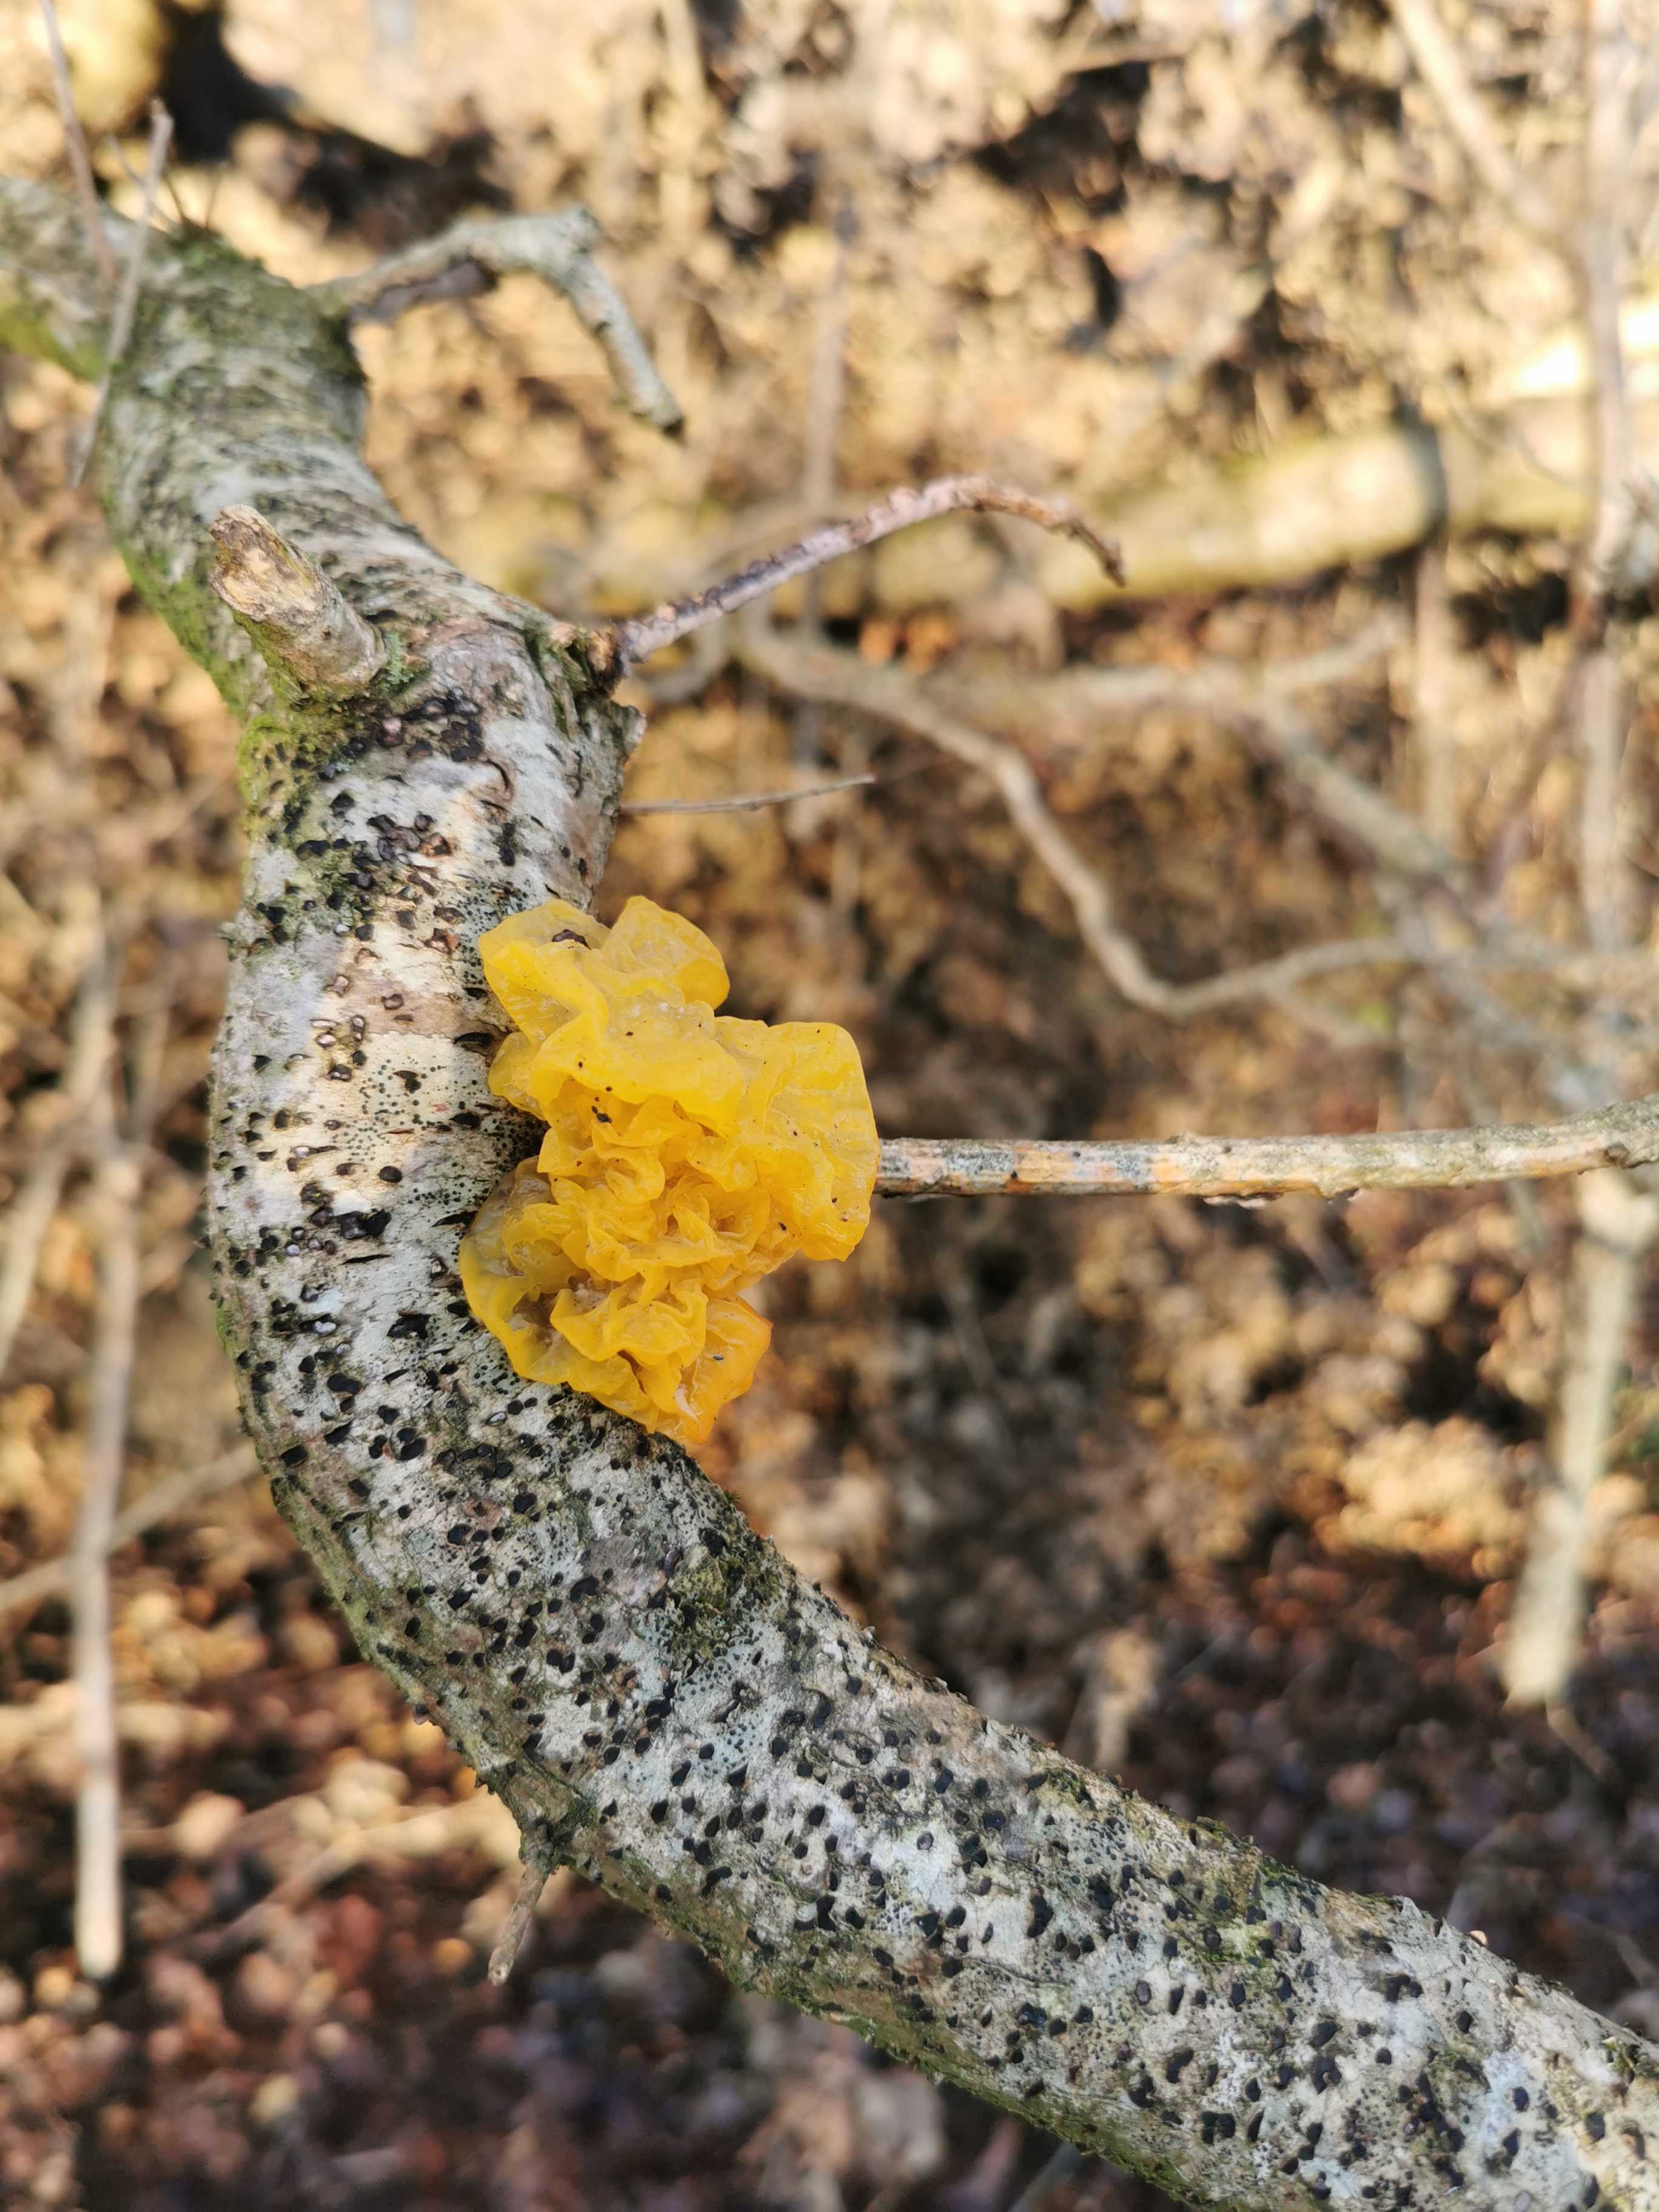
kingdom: Fungi
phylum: Basidiomycota
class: Tremellomycetes
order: Tremellales
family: Tremellaceae
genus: Tremella
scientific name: Tremella mesenterica
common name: gul bævresvamp
